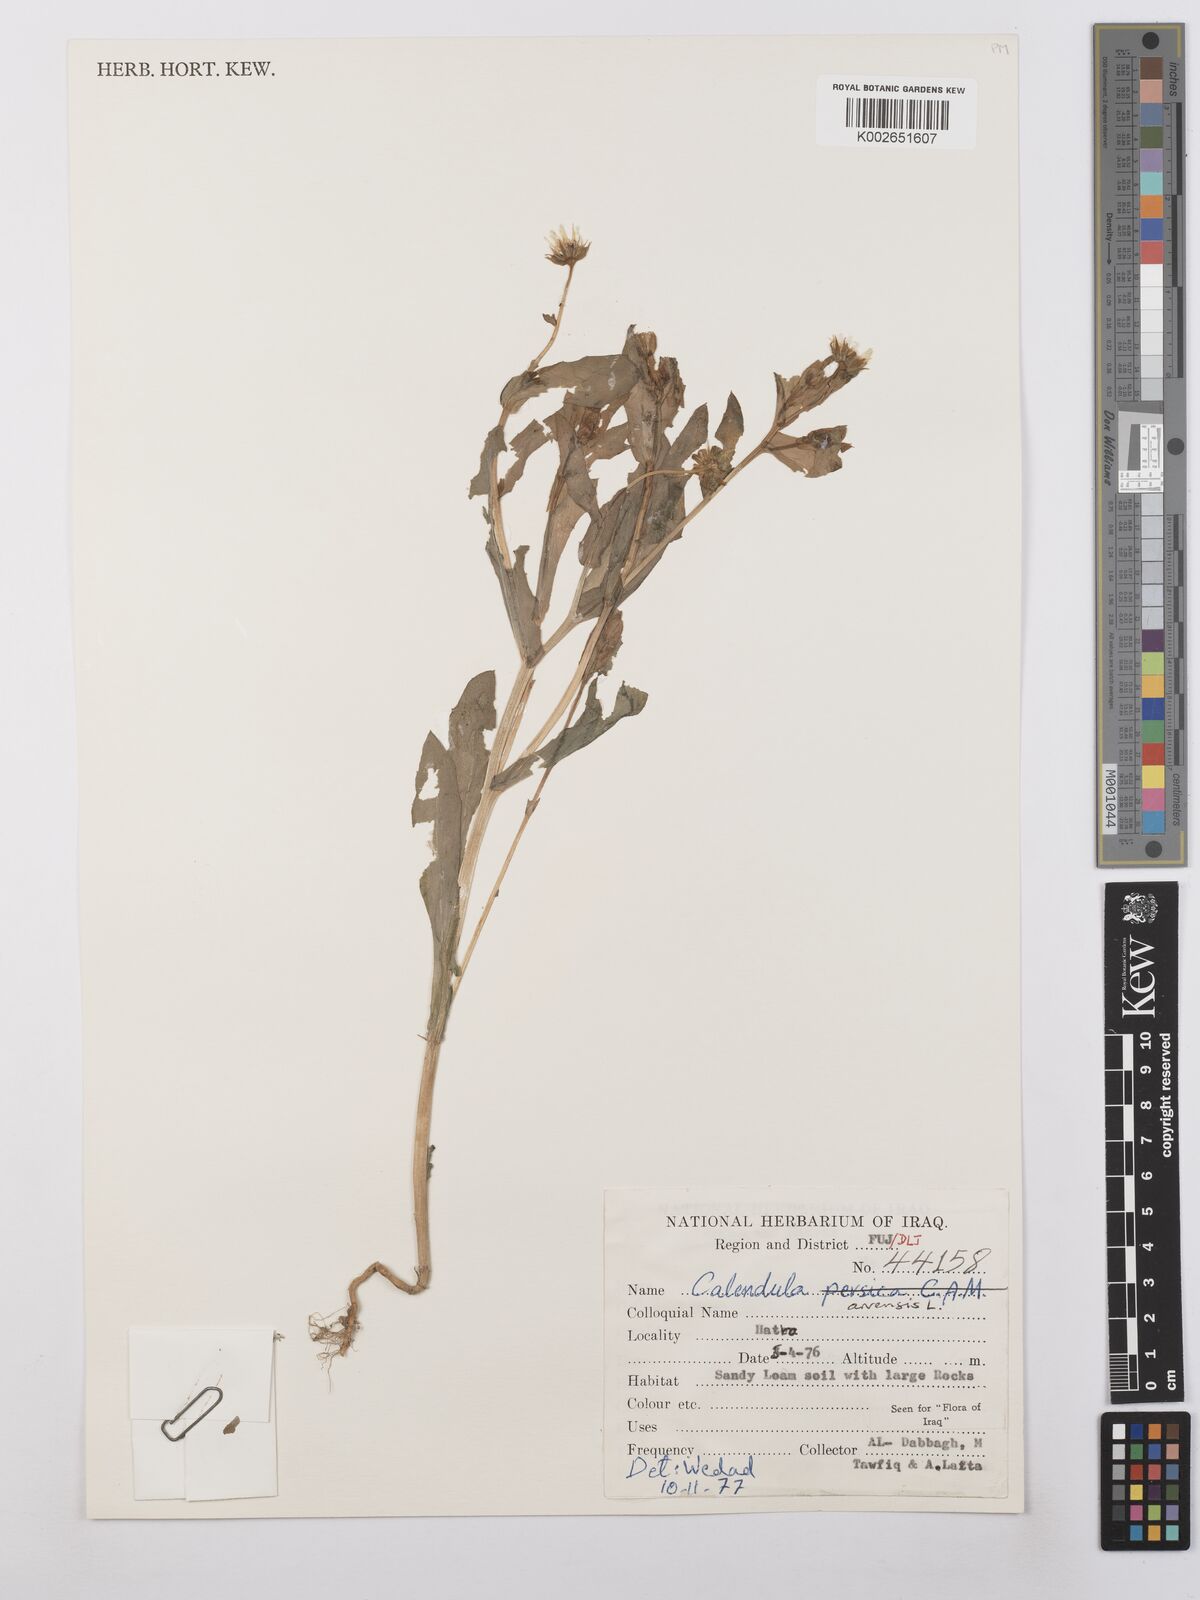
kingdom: Plantae
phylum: Tracheophyta
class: Magnoliopsida
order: Asterales
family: Asteraceae
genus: Calendula
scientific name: Calendula arvensis
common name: Field marigold
